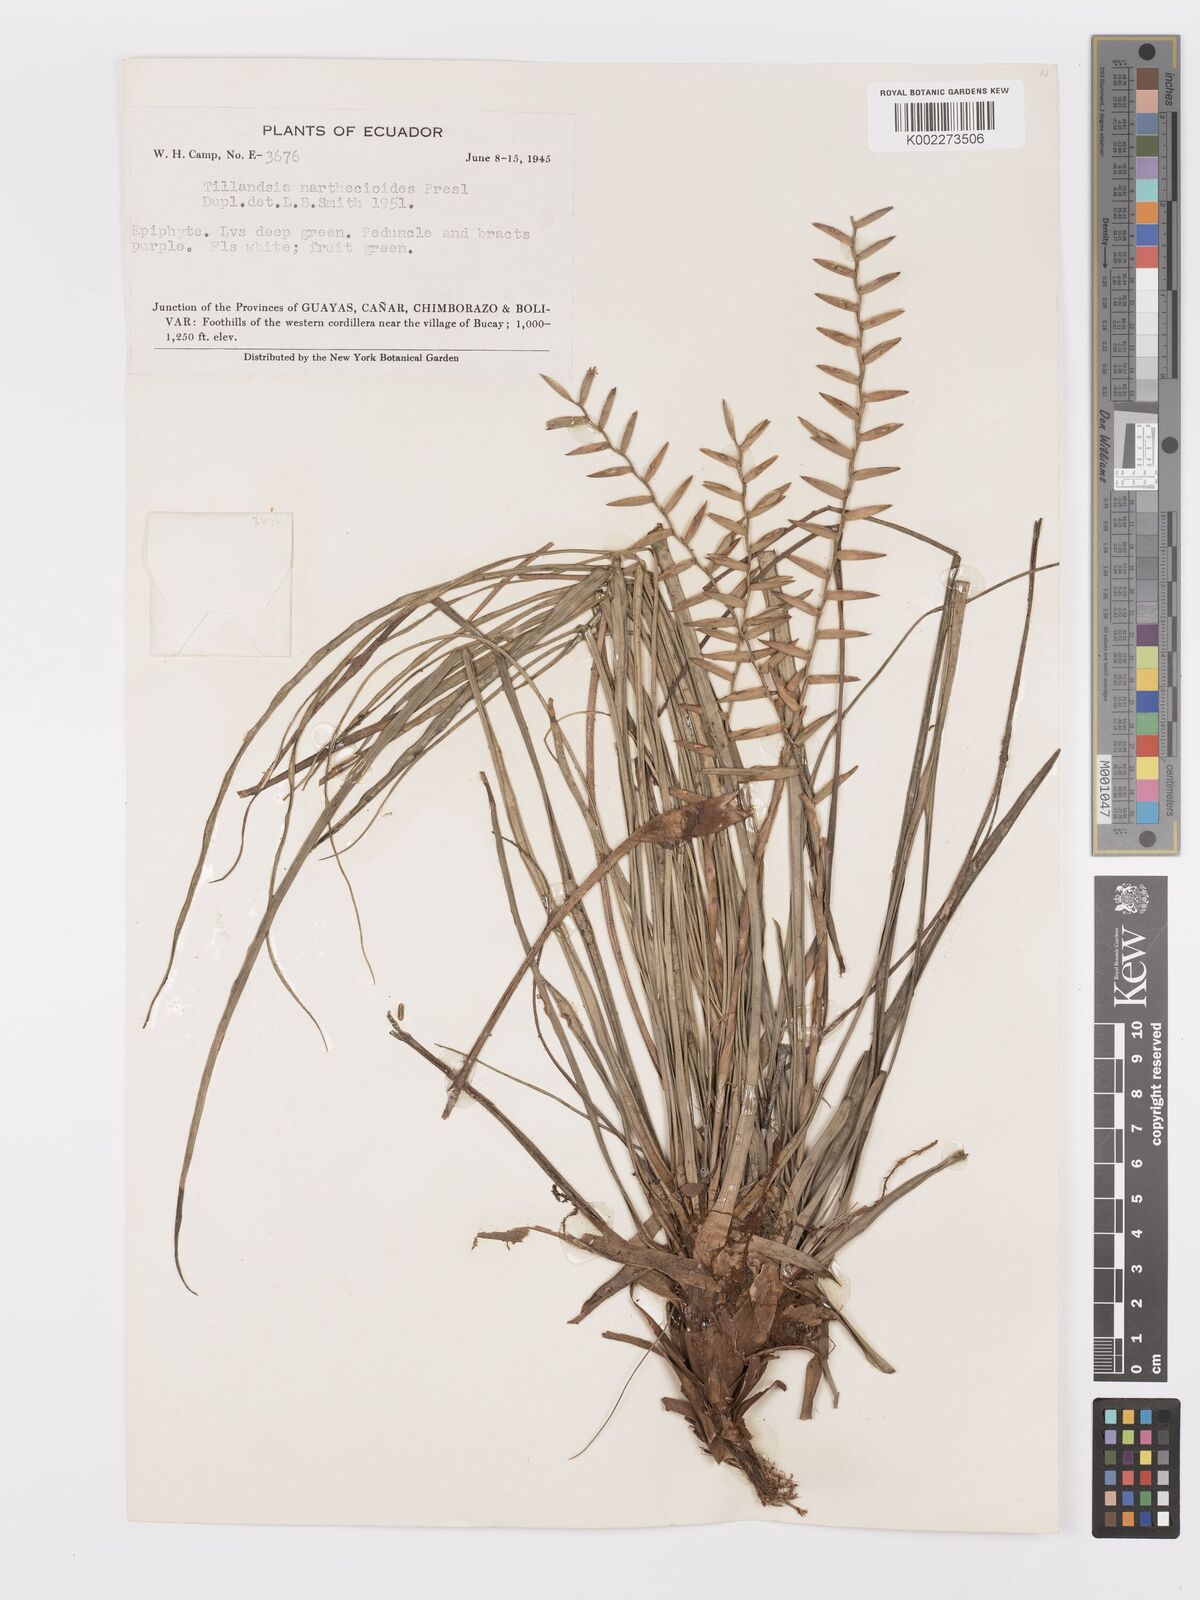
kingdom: Plantae
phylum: Tracheophyta
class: Liliopsida
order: Poales
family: Bromeliaceae
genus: Lemeltonia
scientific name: Lemeltonia narthecioides
